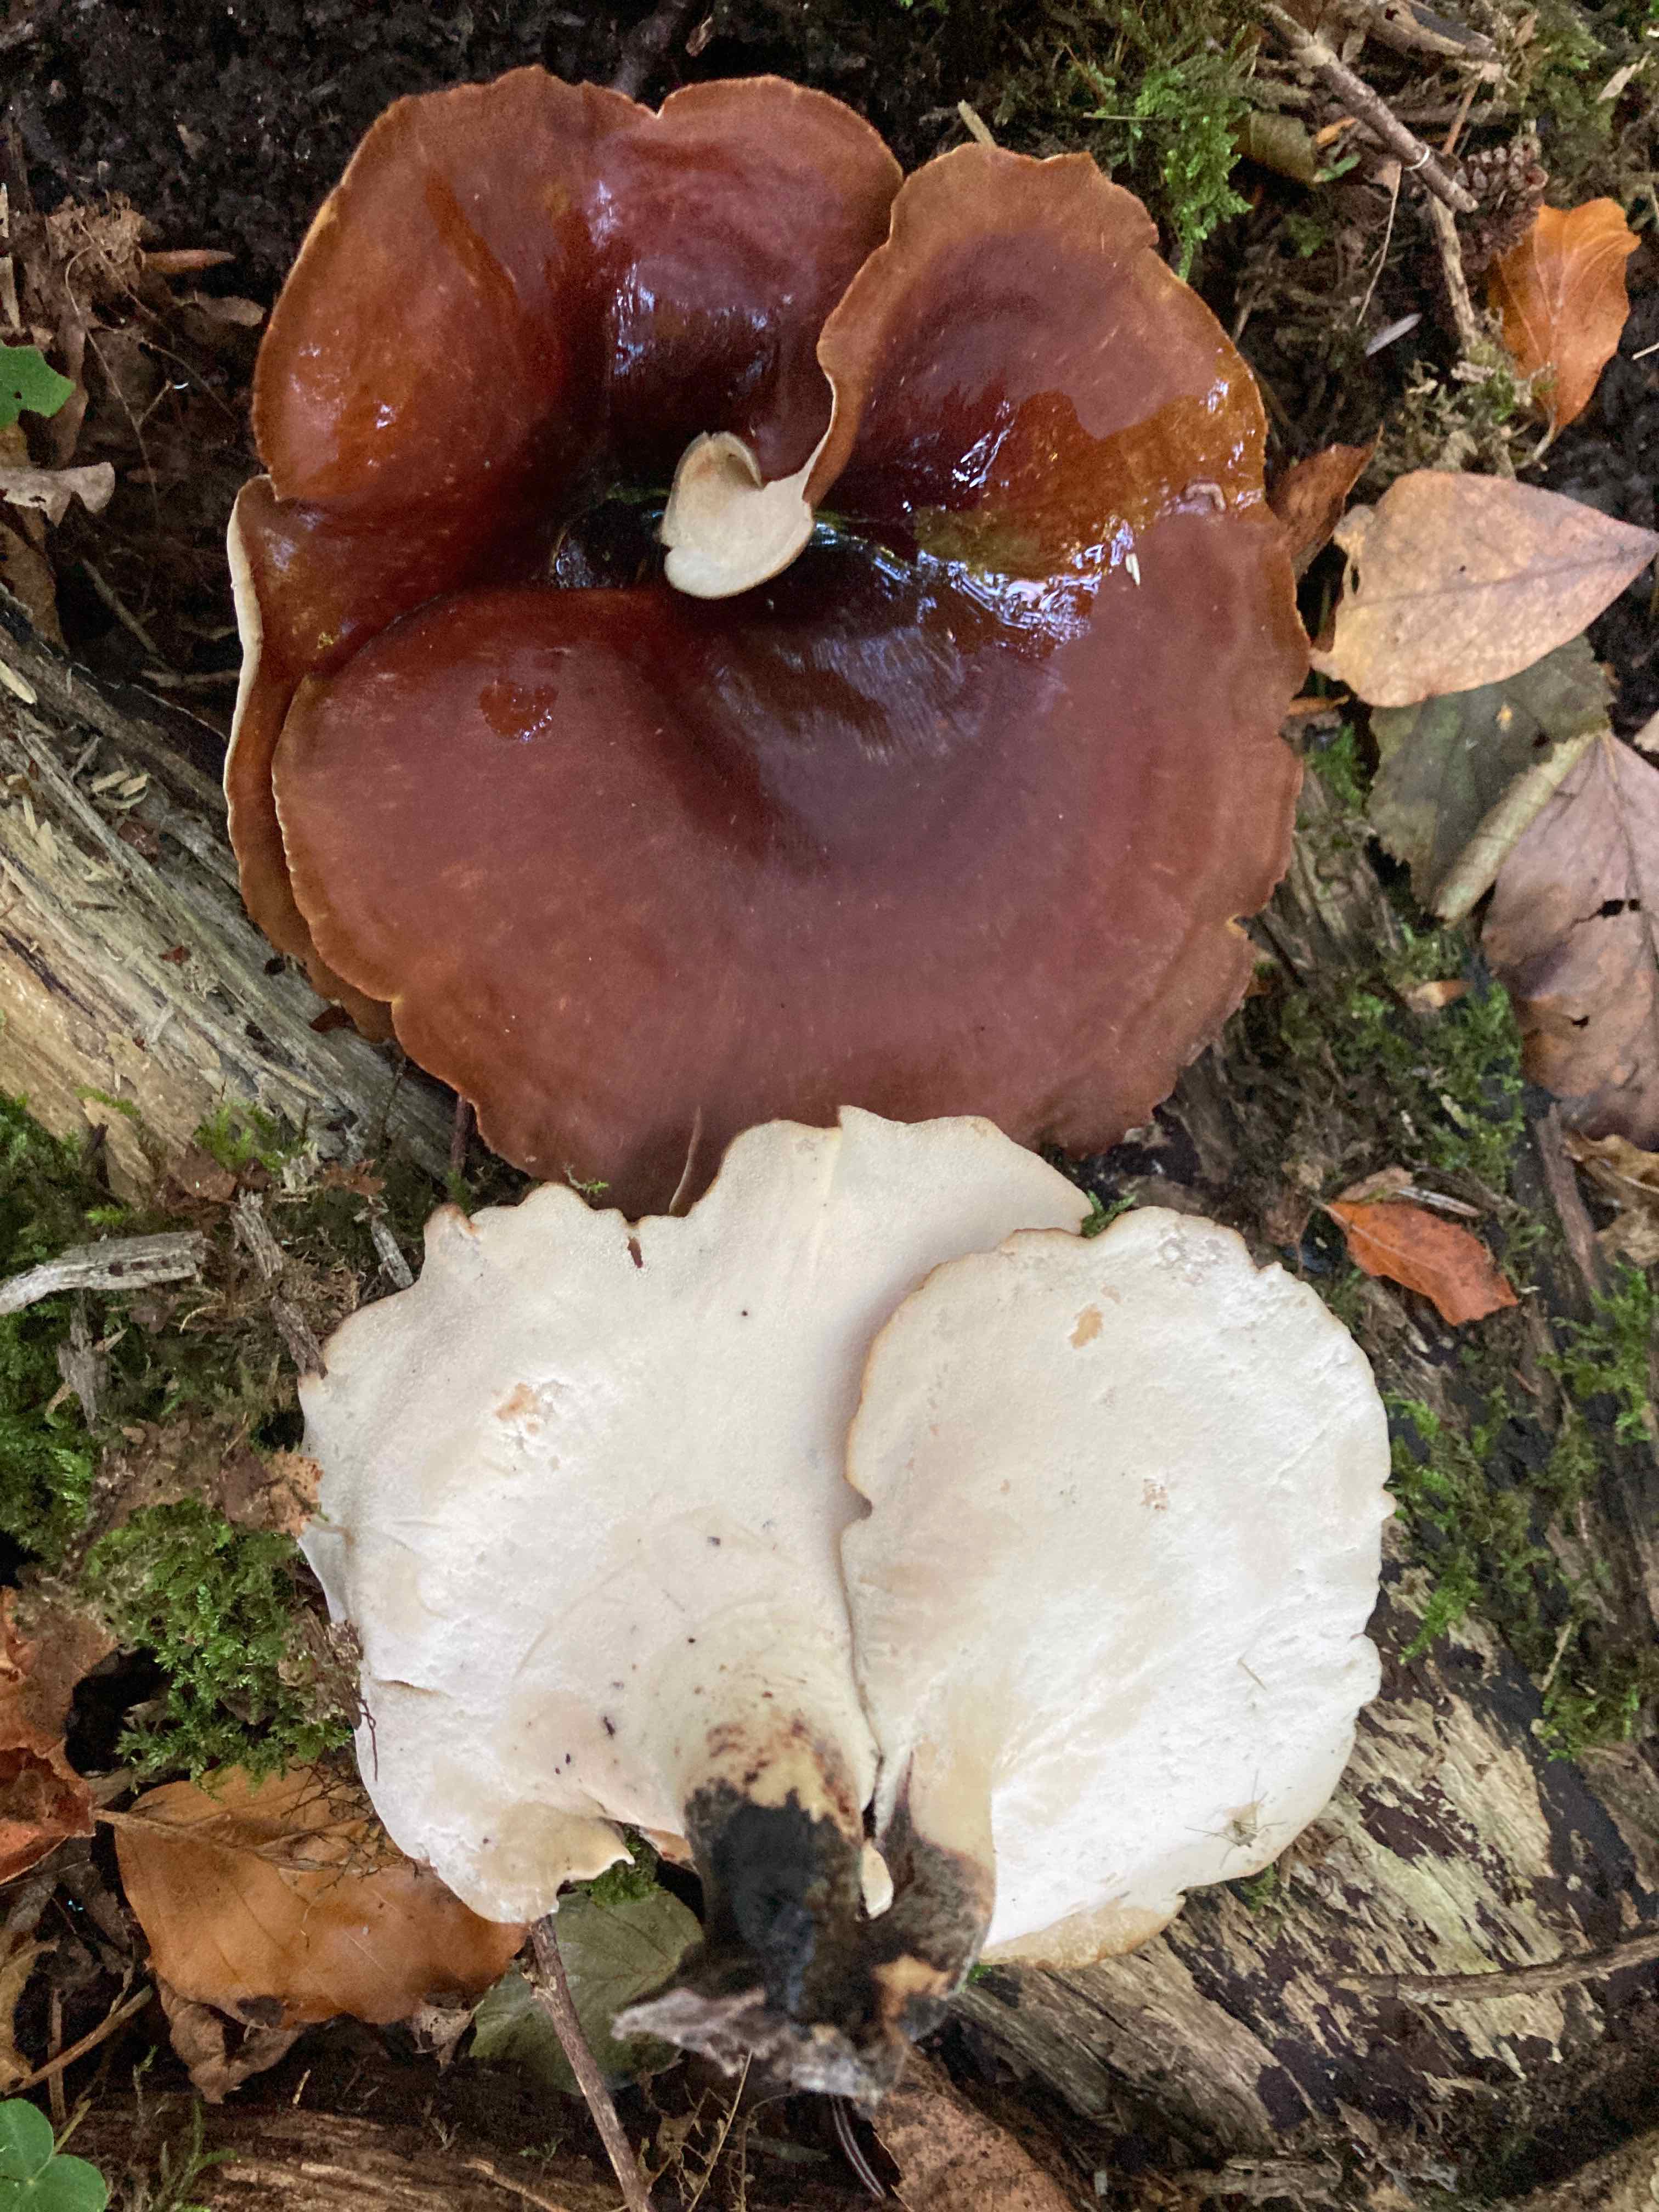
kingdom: Fungi
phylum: Basidiomycota
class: Agaricomycetes
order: Polyporales
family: Polyporaceae
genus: Picipes
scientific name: Picipes badius
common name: kastaniebrun stilkporesvamp
